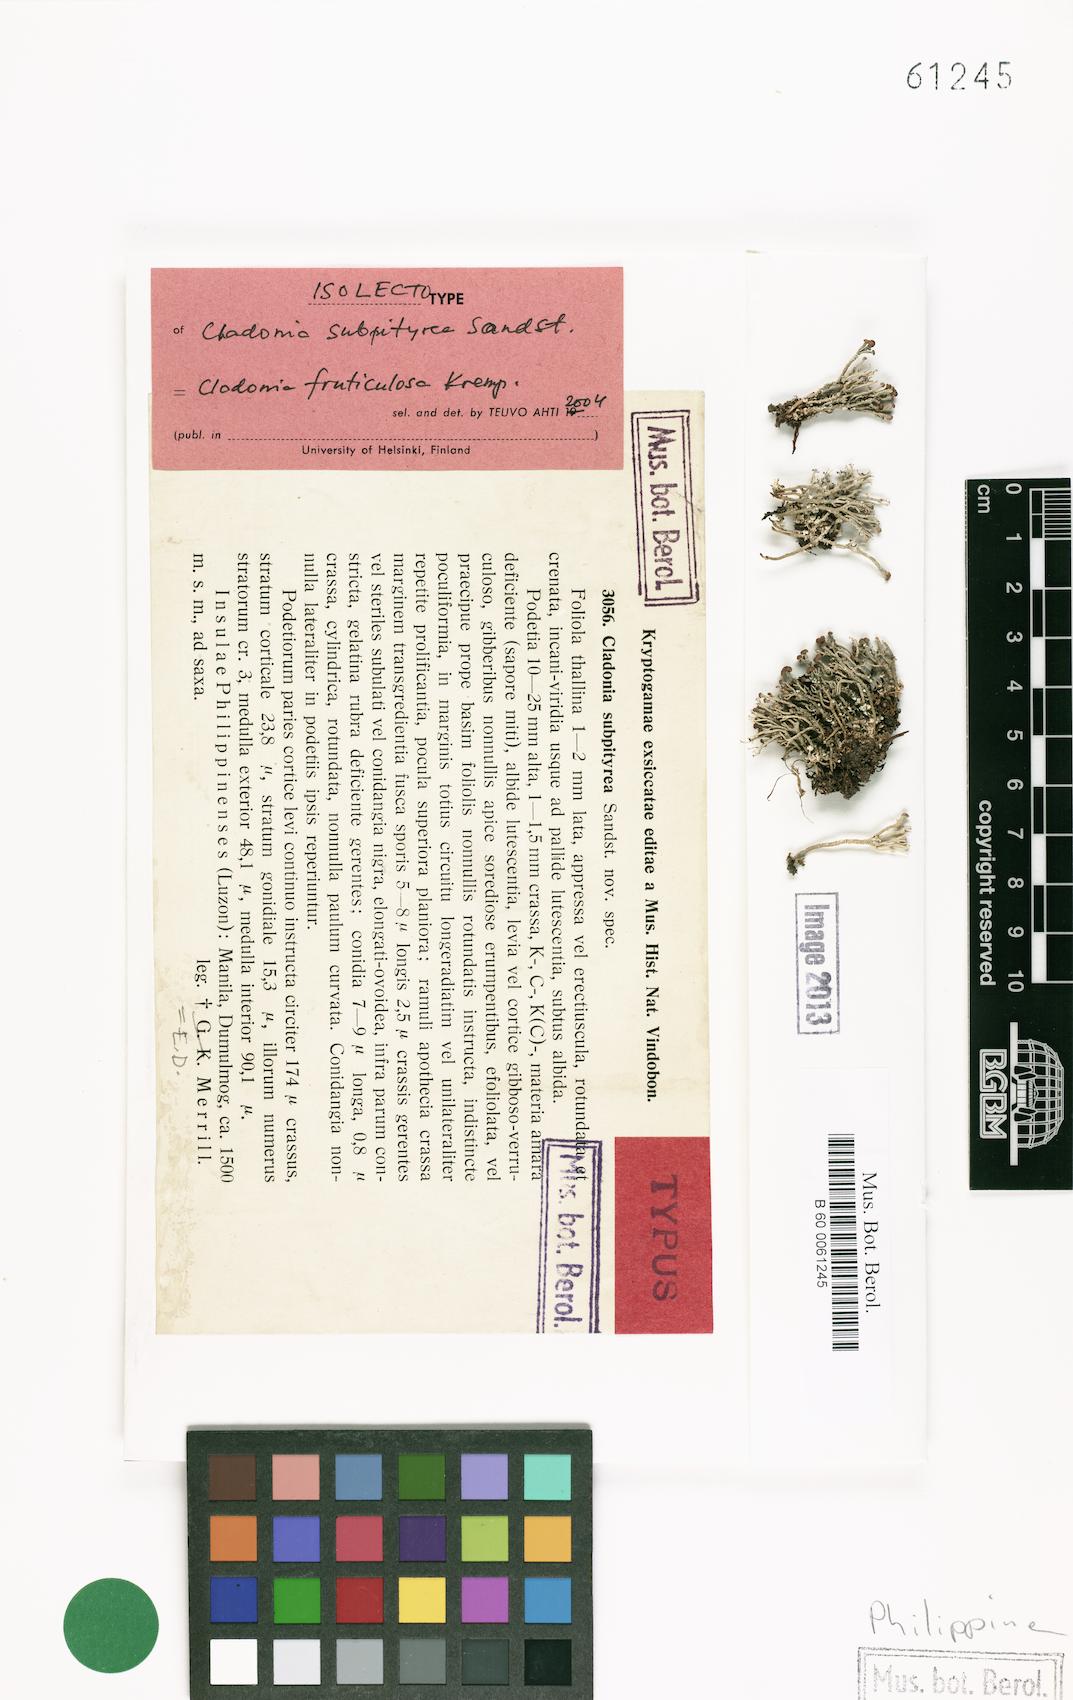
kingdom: Fungi
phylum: Ascomycota
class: Lecanoromycetes
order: Lecanorales
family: Cladoniaceae
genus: Cladonia
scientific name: Cladonia subpityrea
